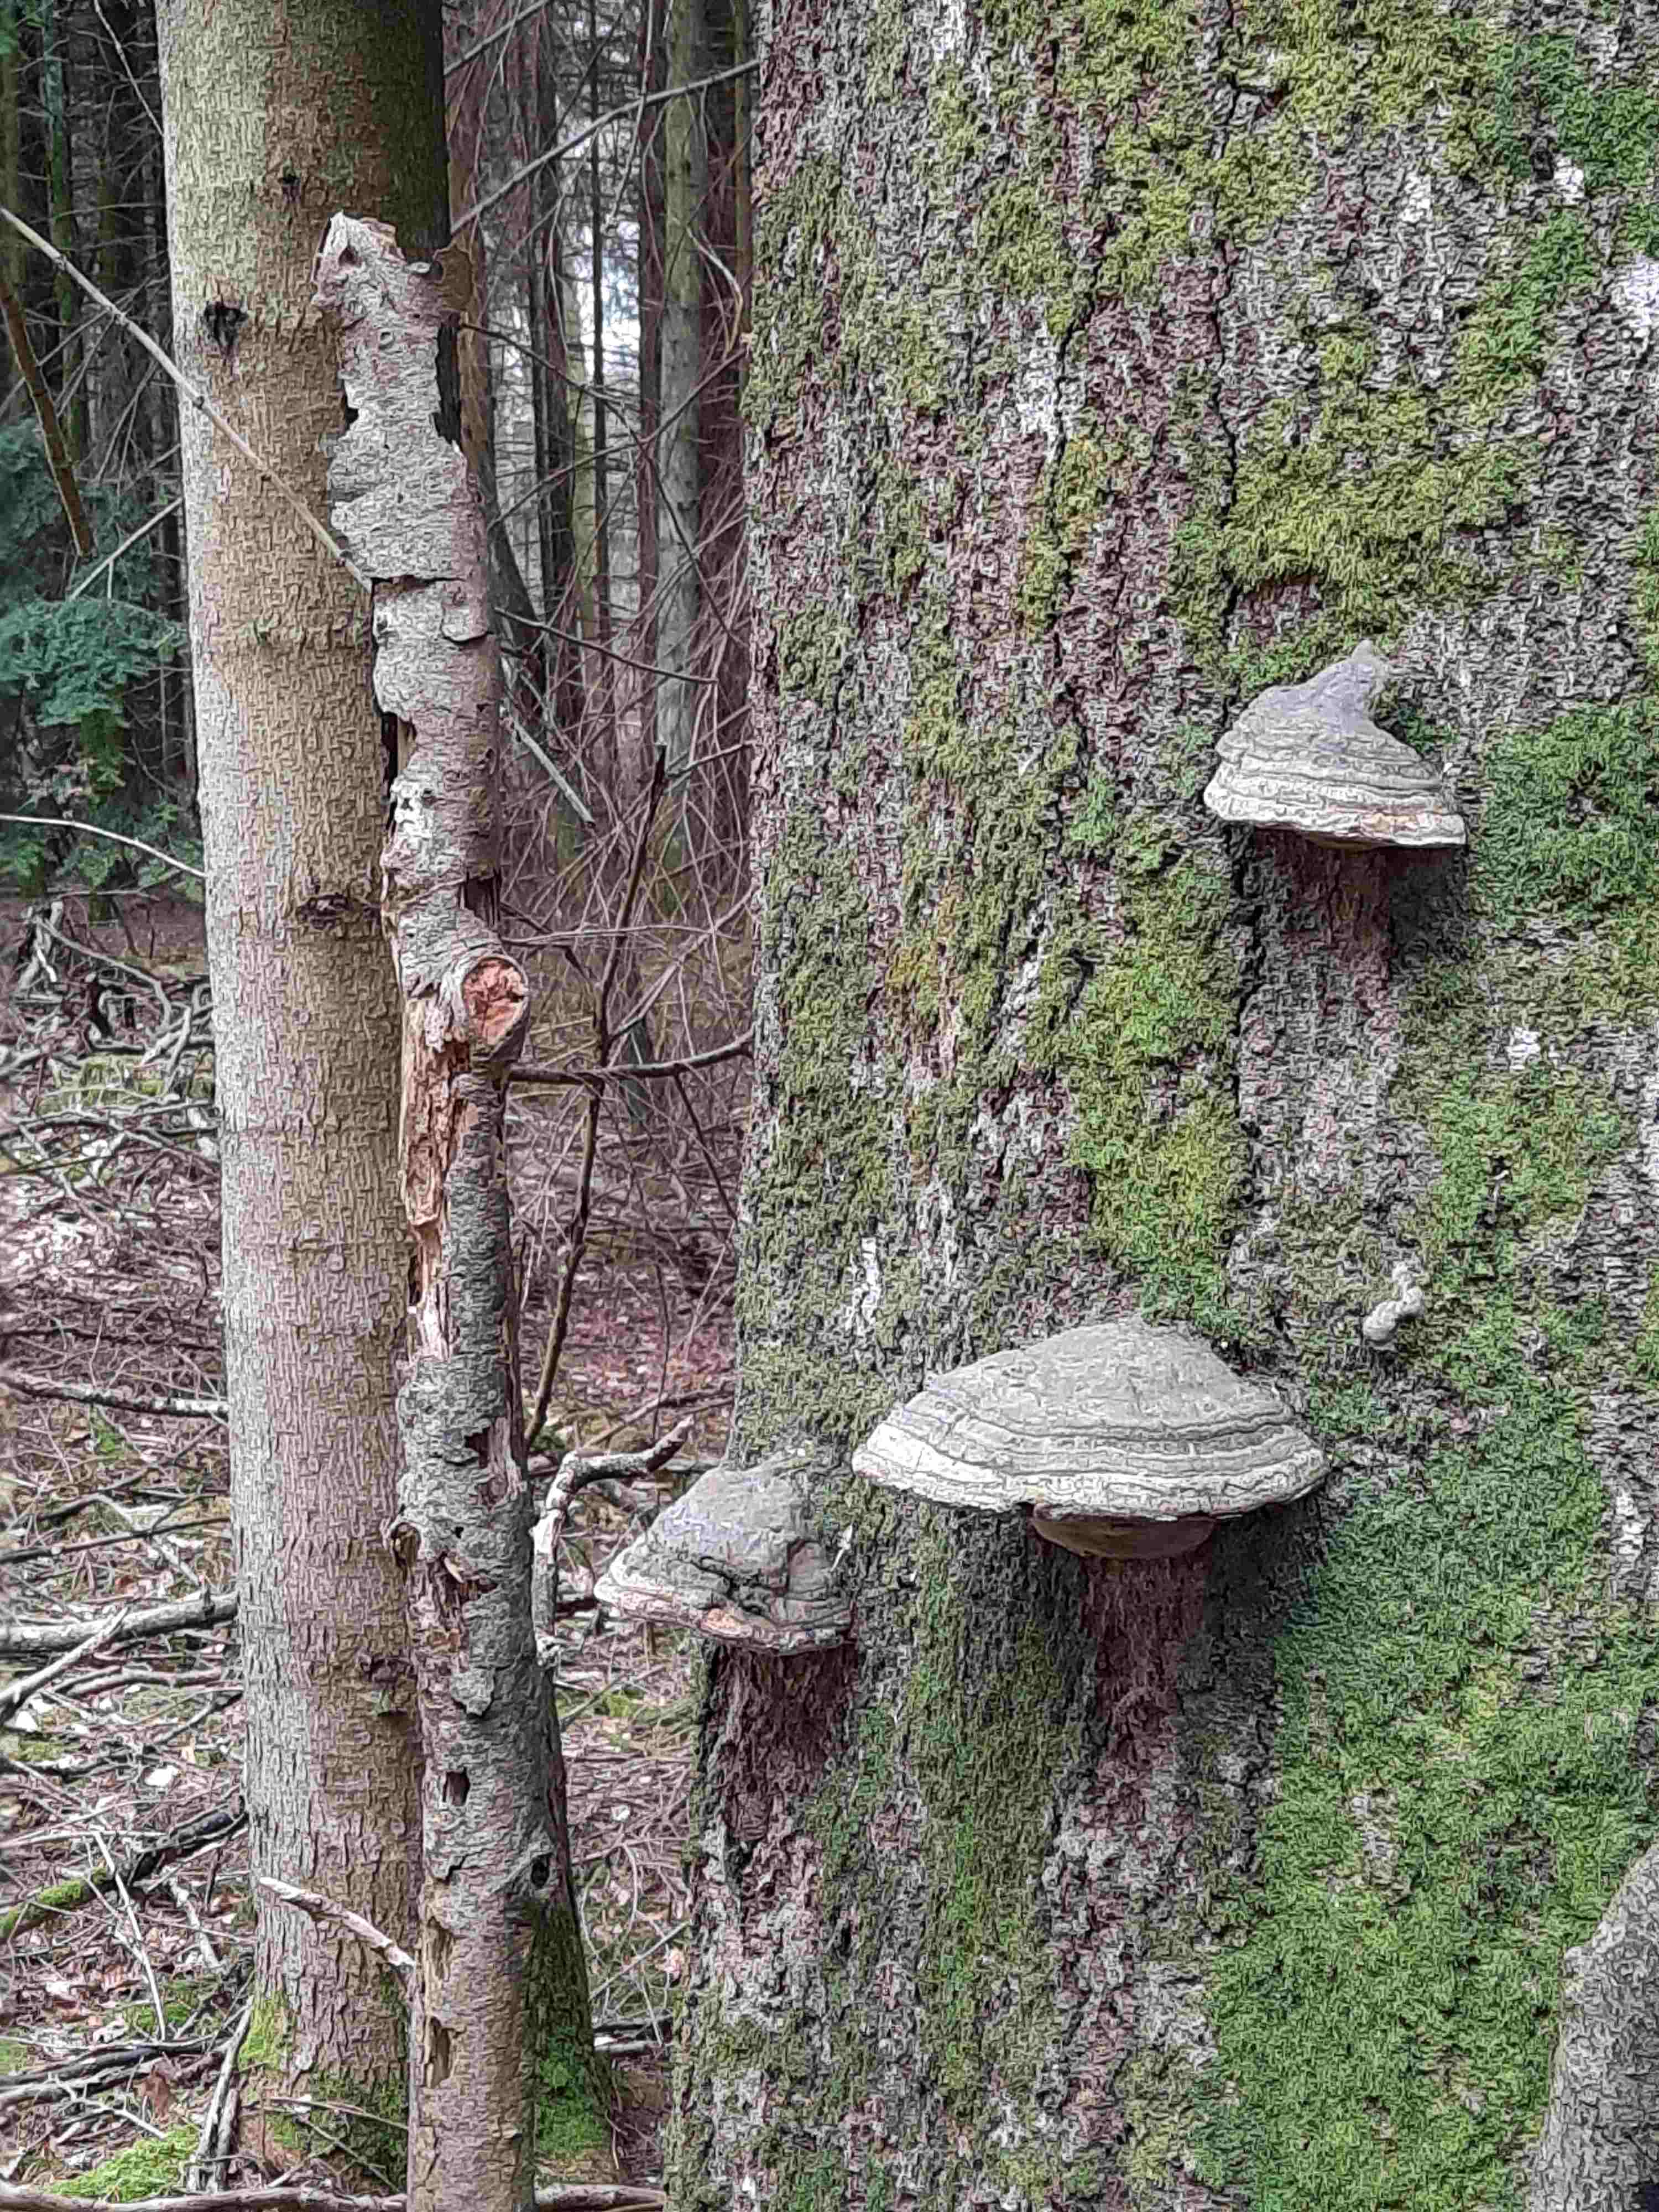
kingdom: Fungi
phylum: Basidiomycota
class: Agaricomycetes
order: Polyporales
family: Polyporaceae
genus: Fomes
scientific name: Fomes fomentarius
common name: tøndersvamp
